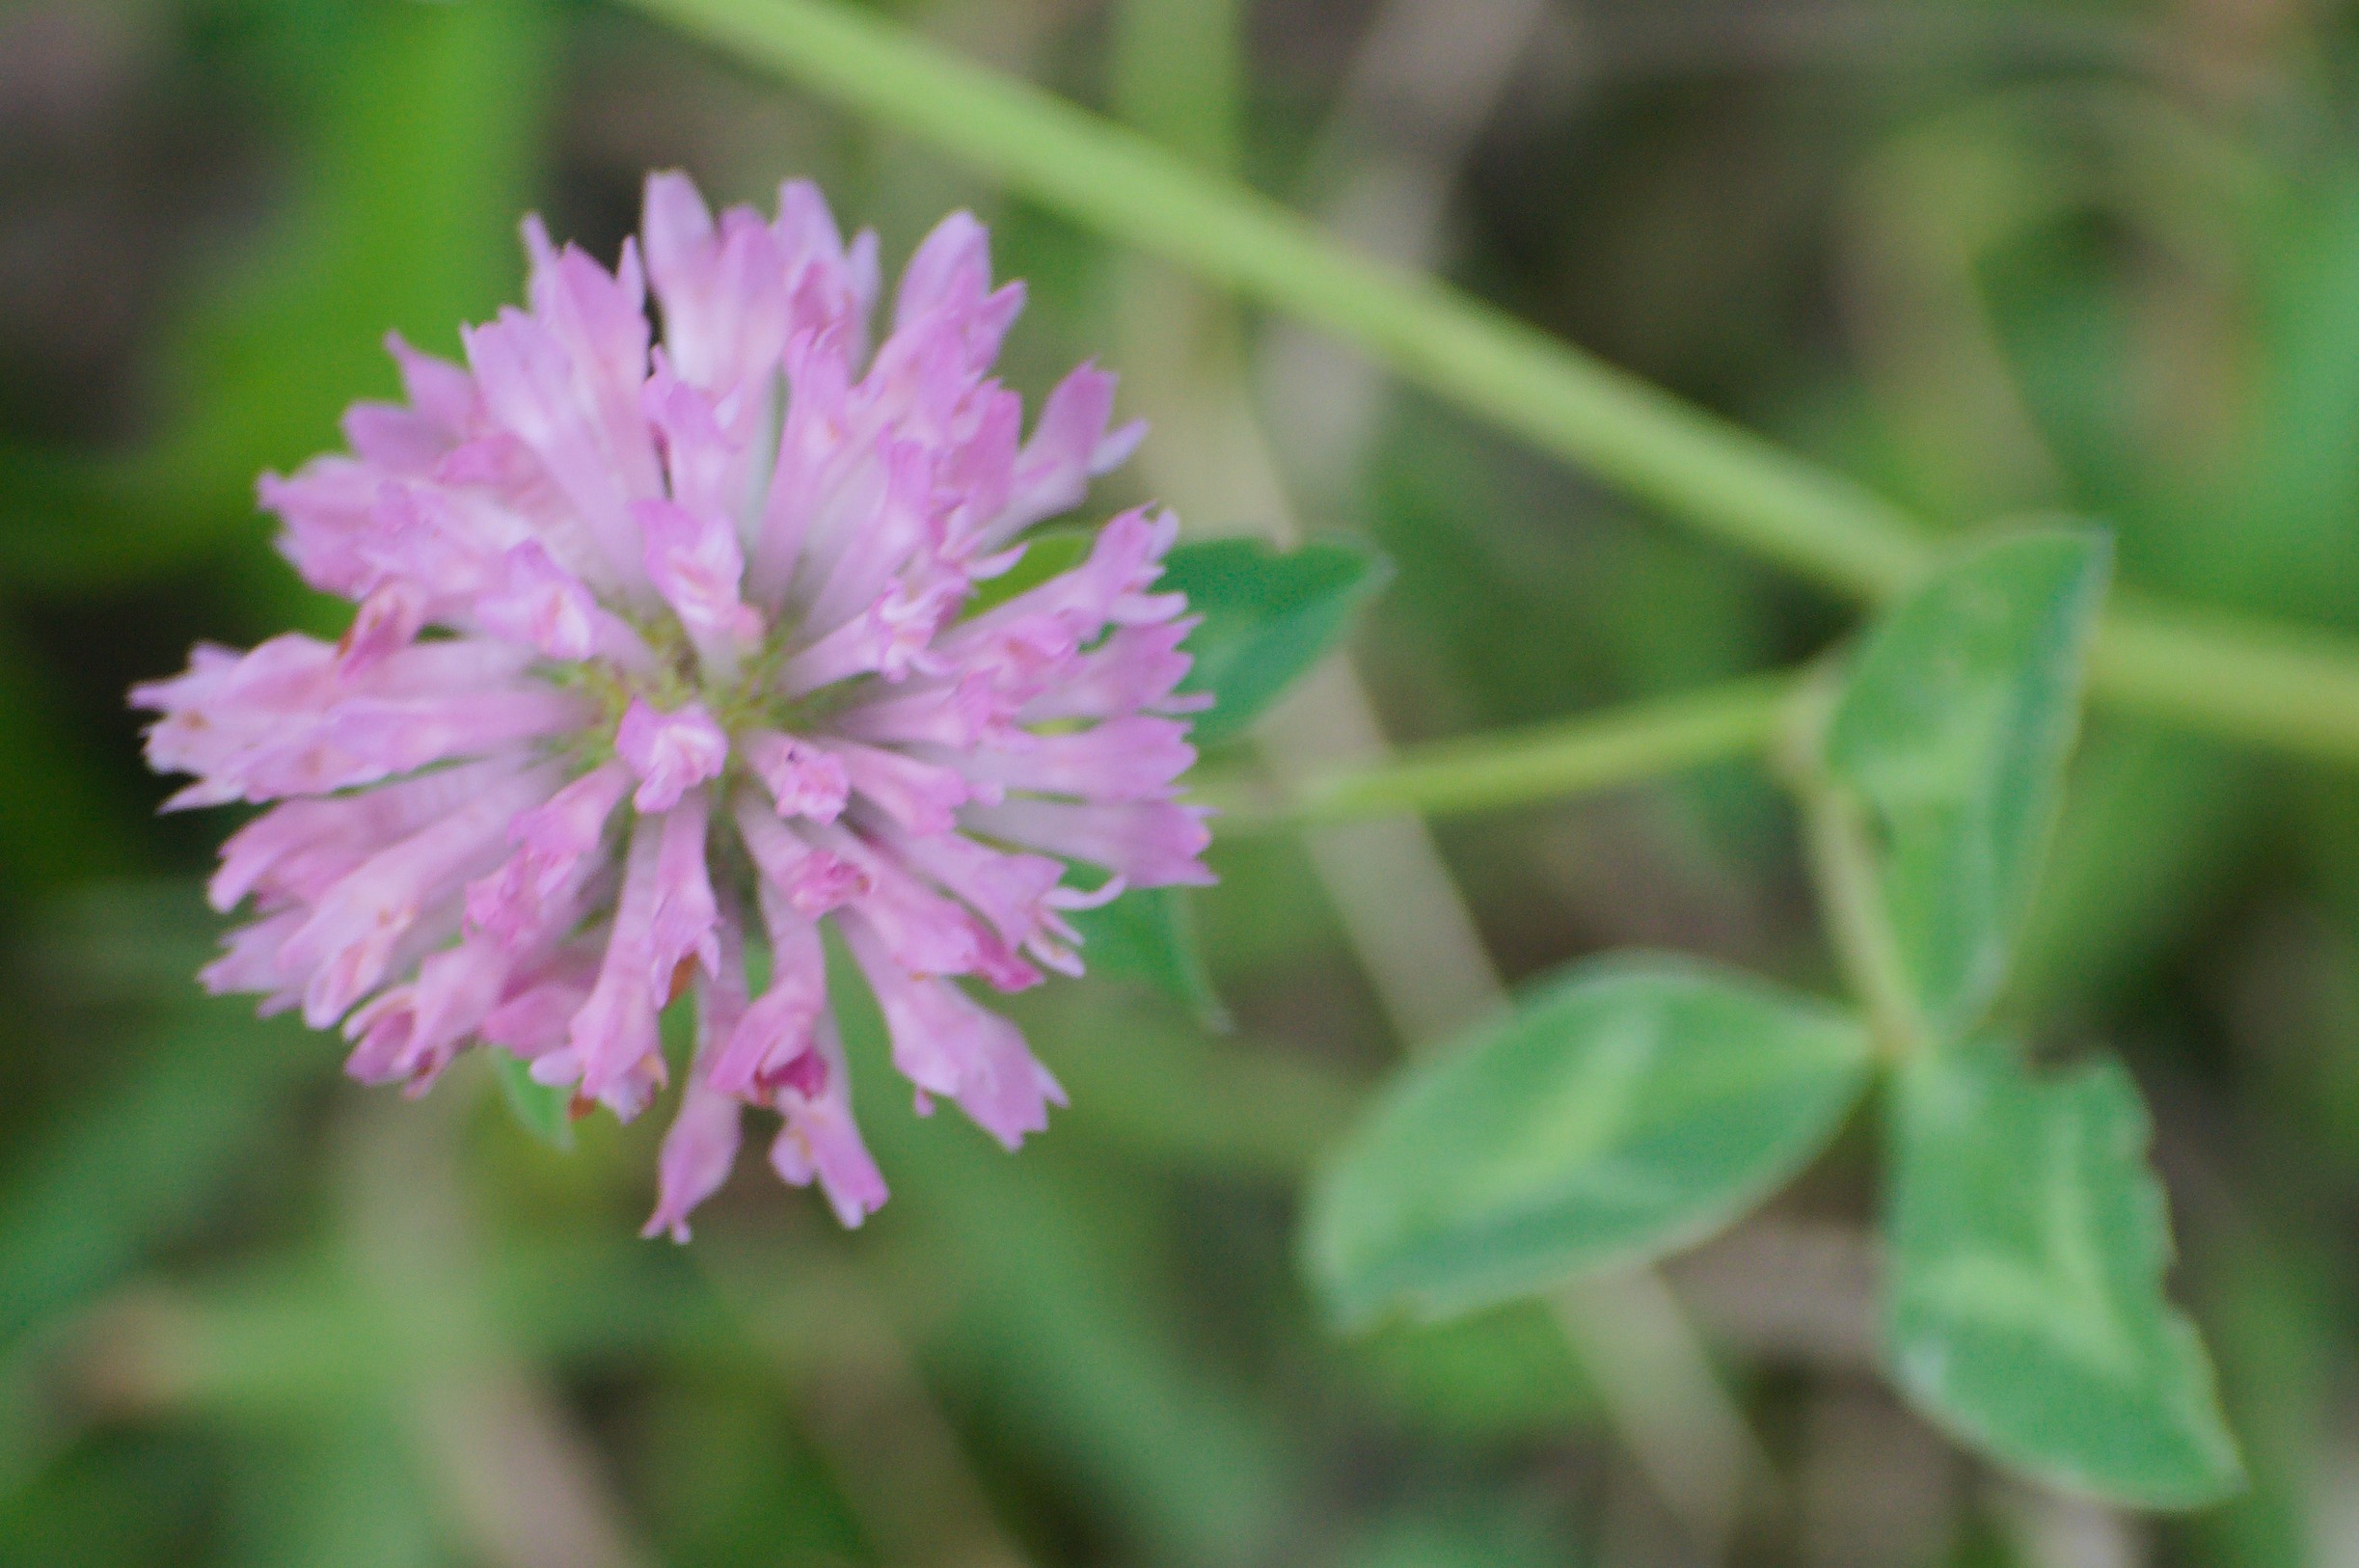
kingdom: Plantae
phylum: Tracheophyta
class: Magnoliopsida
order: Fabales
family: Fabaceae
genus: Trifolium
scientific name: Trifolium pratense
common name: Rød-kløver
